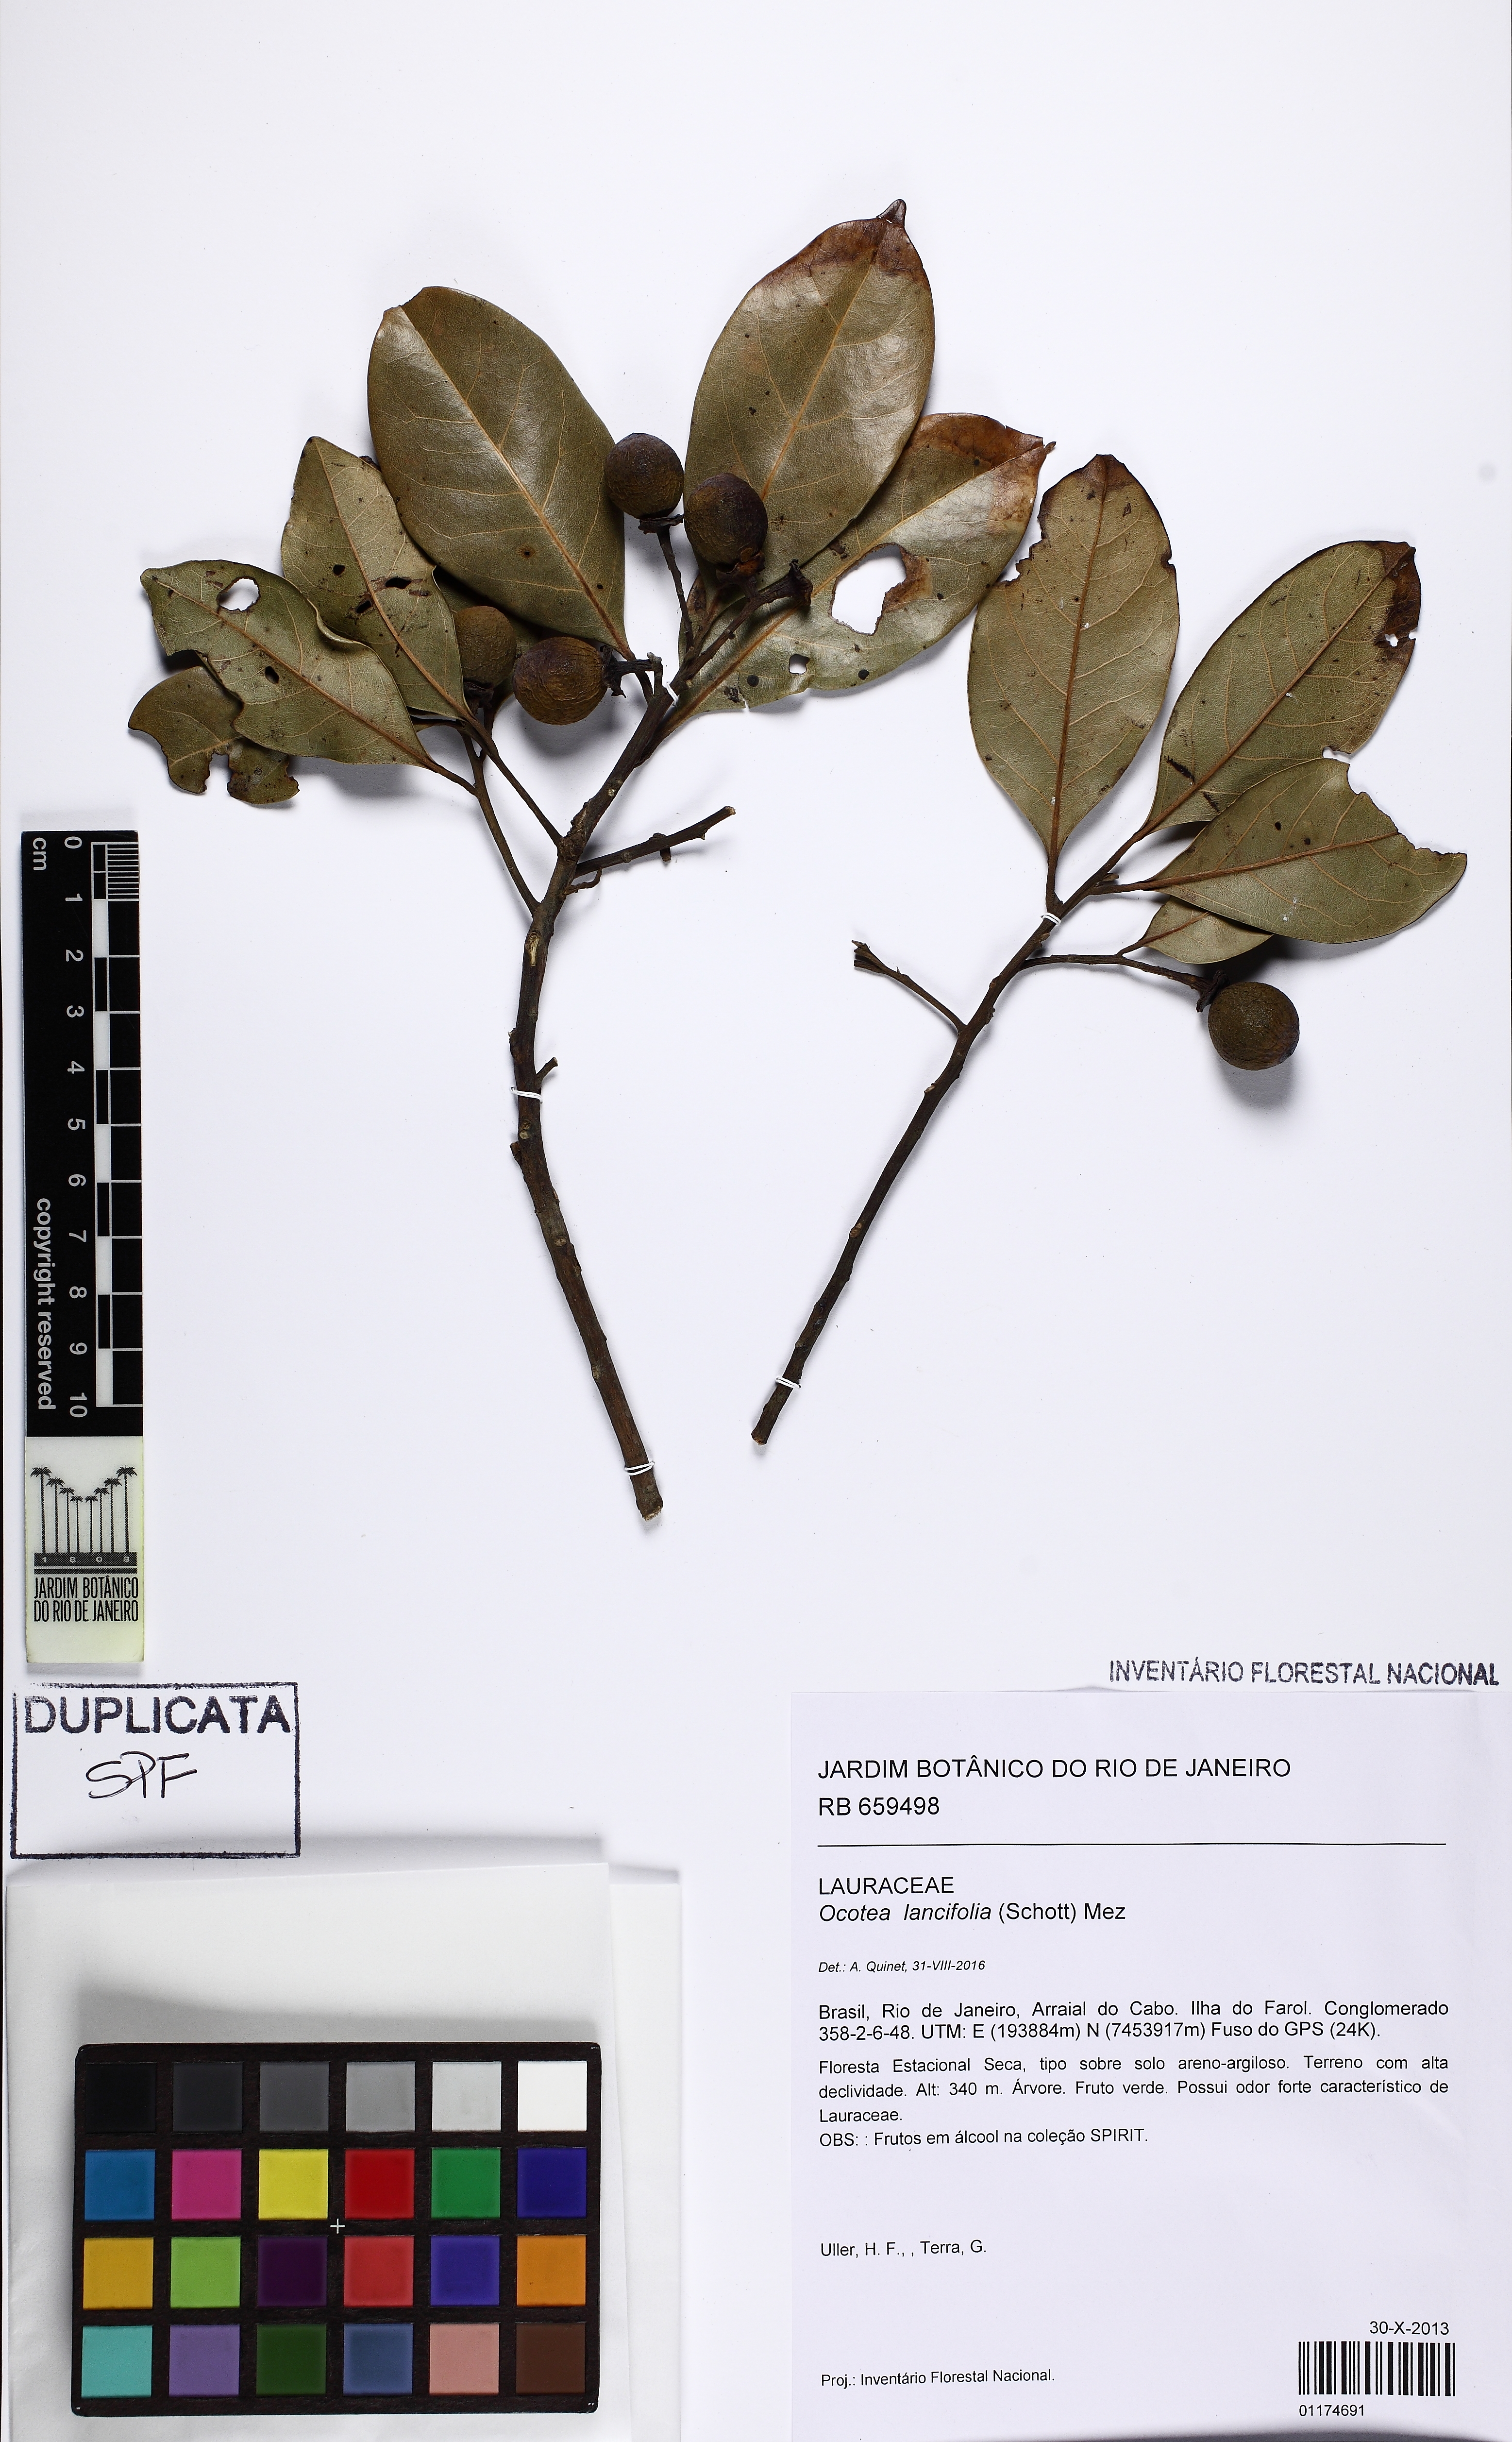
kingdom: Plantae
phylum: Tracheophyta
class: Magnoliopsida
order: Laurales
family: Lauraceae
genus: Ocotea
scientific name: Ocotea lancifolia
